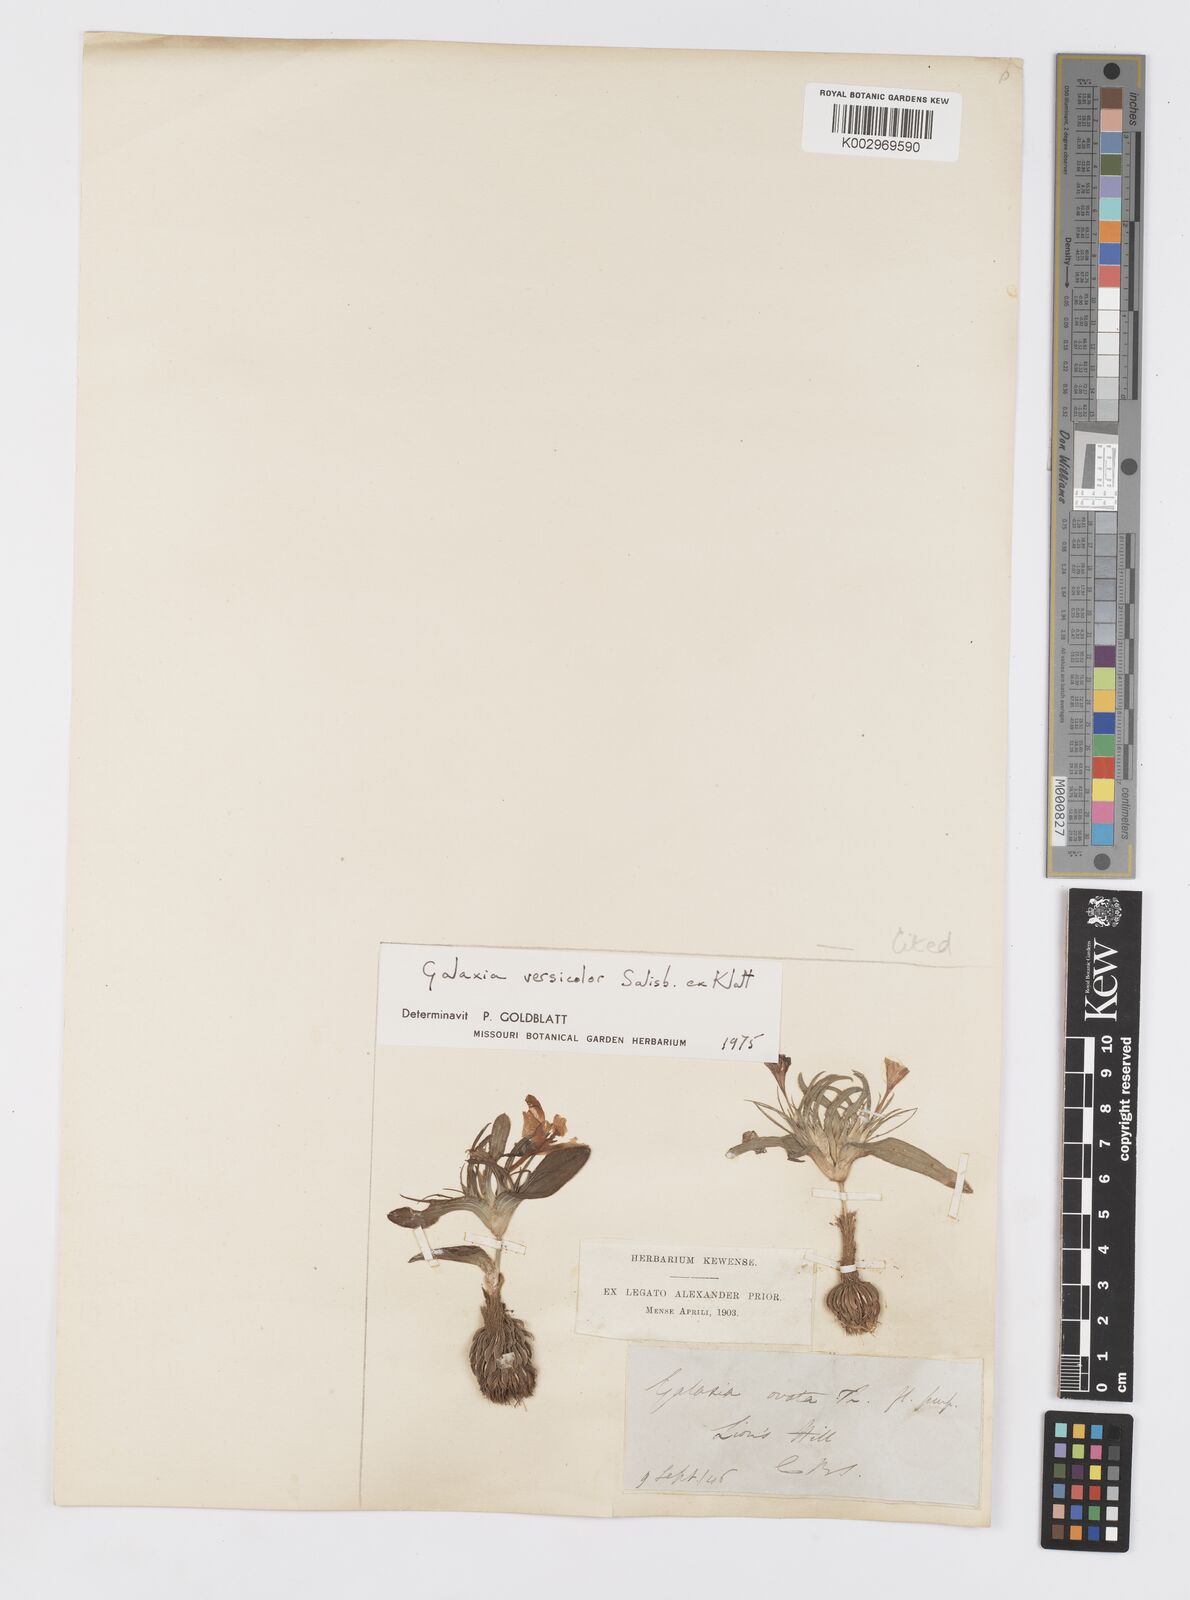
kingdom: Plantae
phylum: Tracheophyta
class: Liliopsida
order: Asparagales
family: Iridaceae
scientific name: Iridaceae
